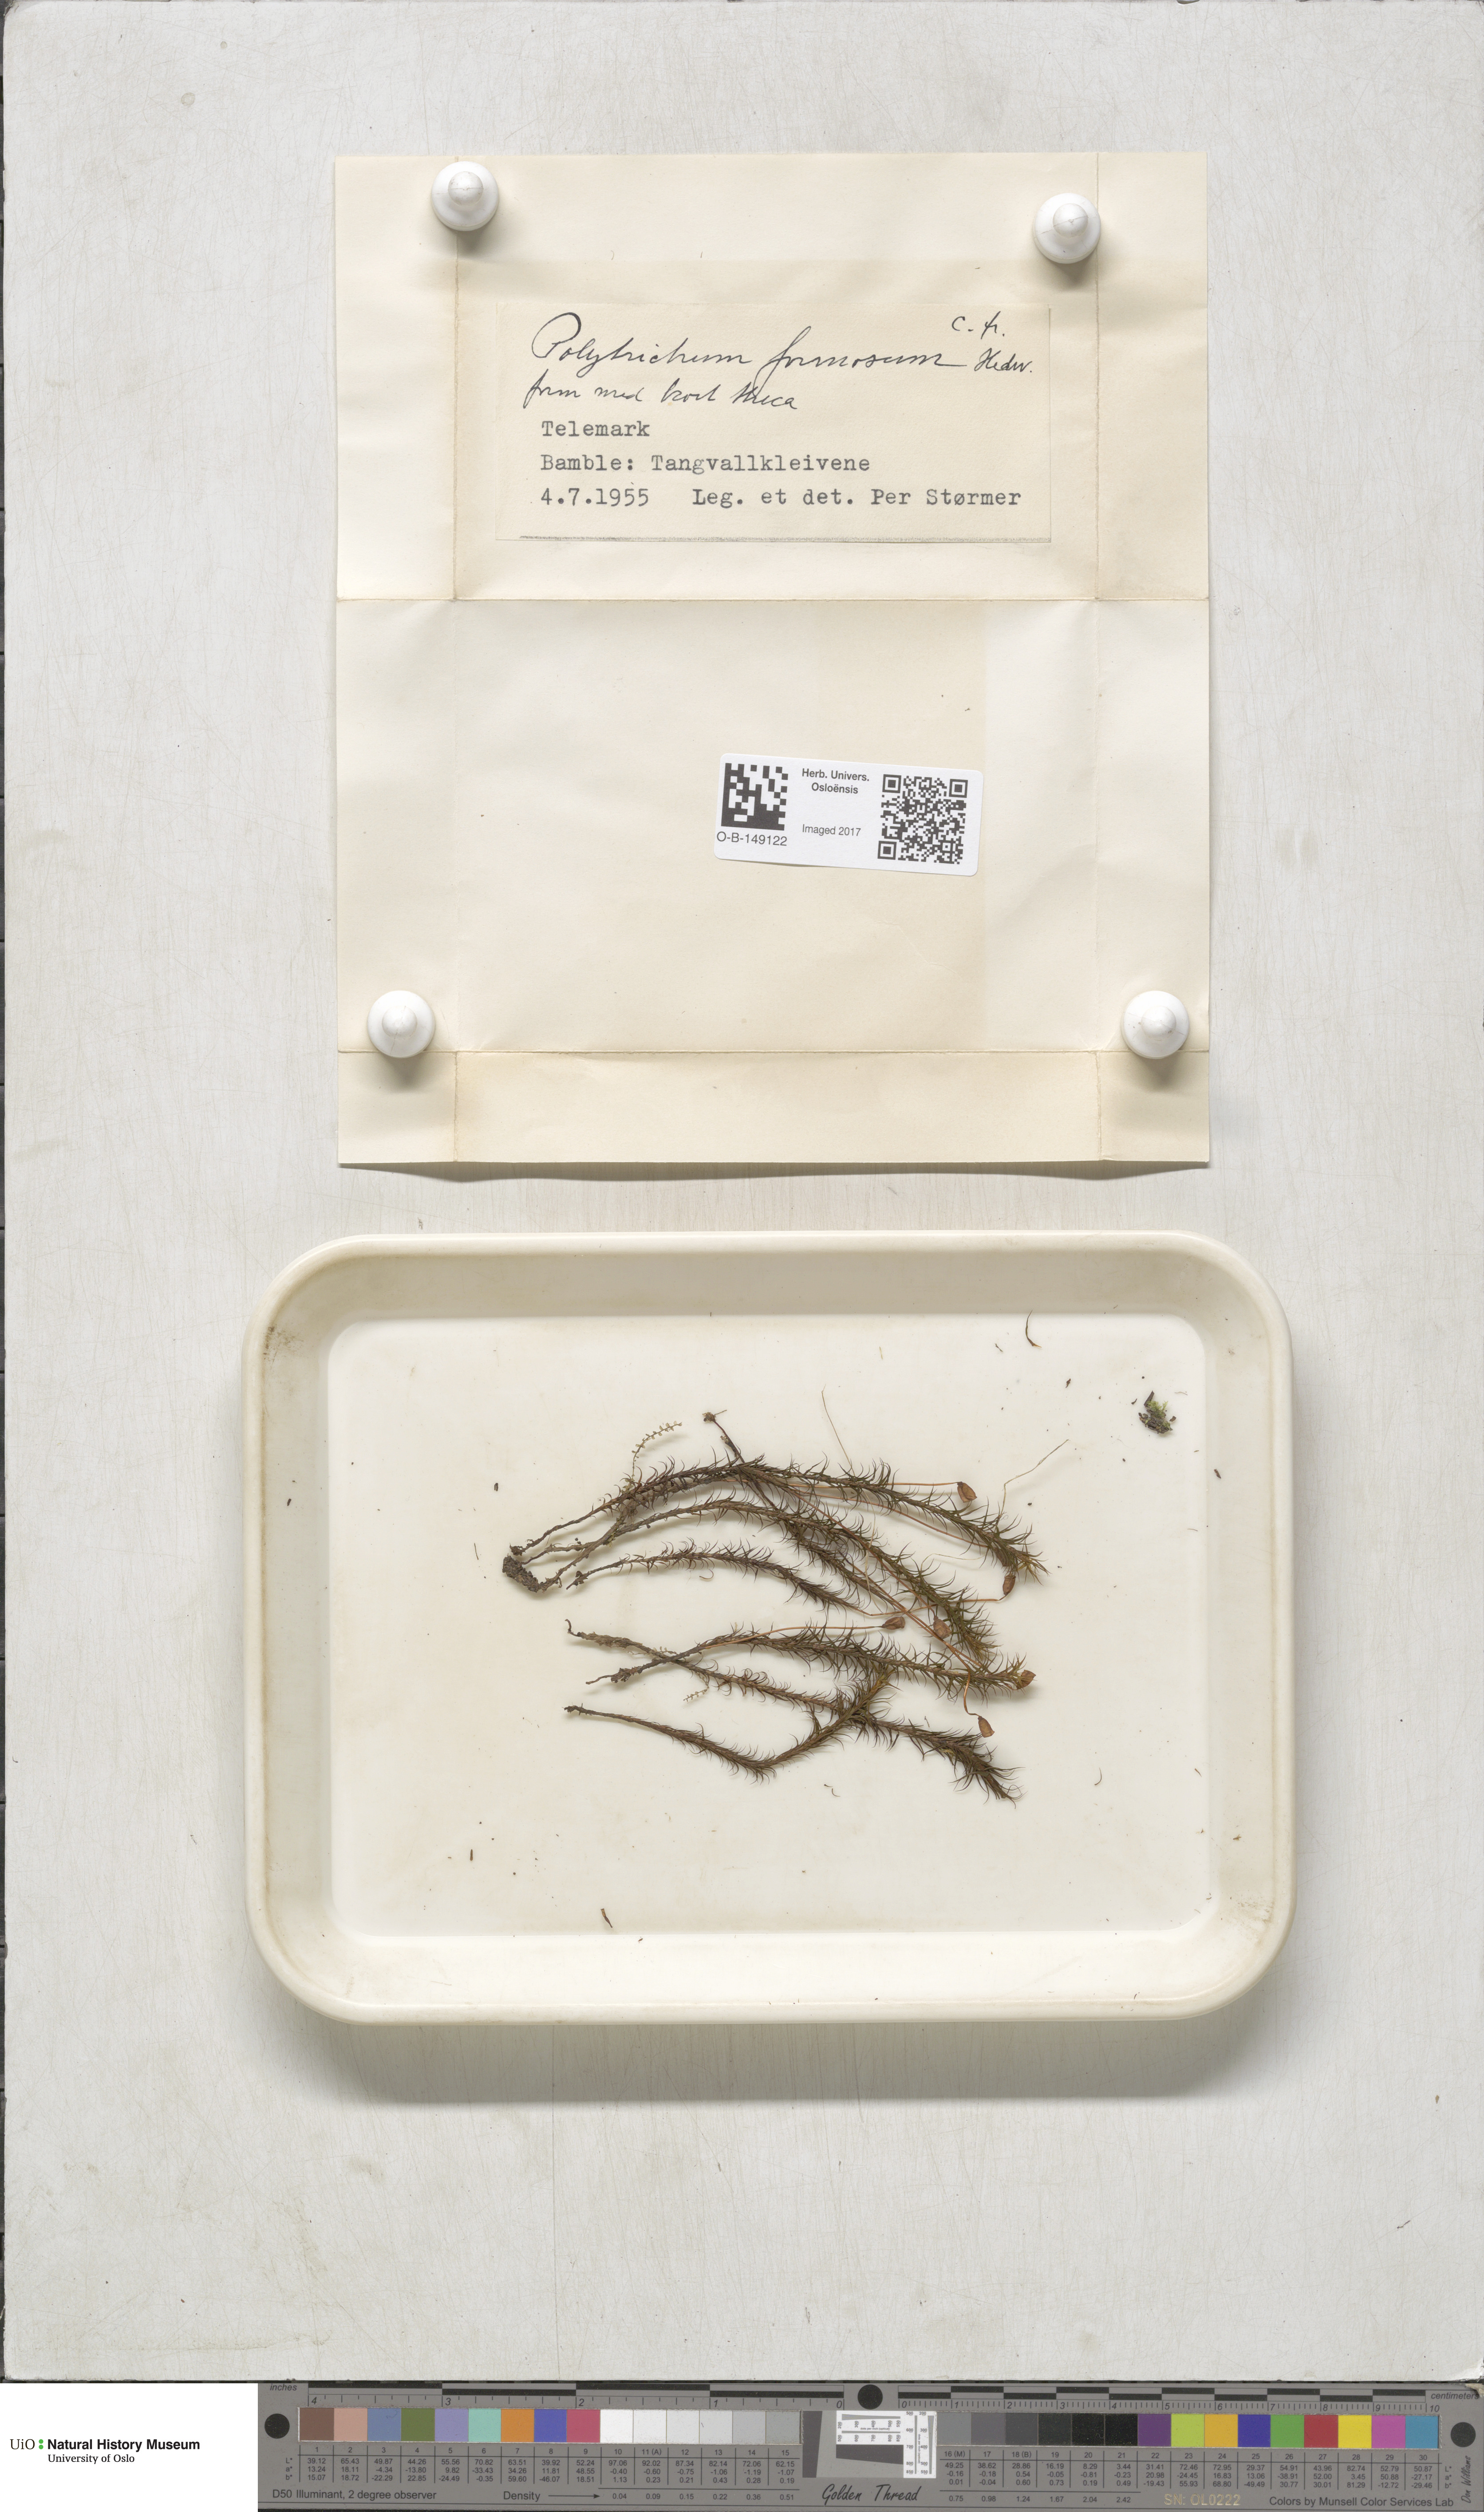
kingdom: Plantae
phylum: Bryophyta
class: Polytrichopsida
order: Polytrichales
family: Polytrichaceae
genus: Polytrichum
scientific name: Polytrichum formosum
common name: Bank haircap moss
